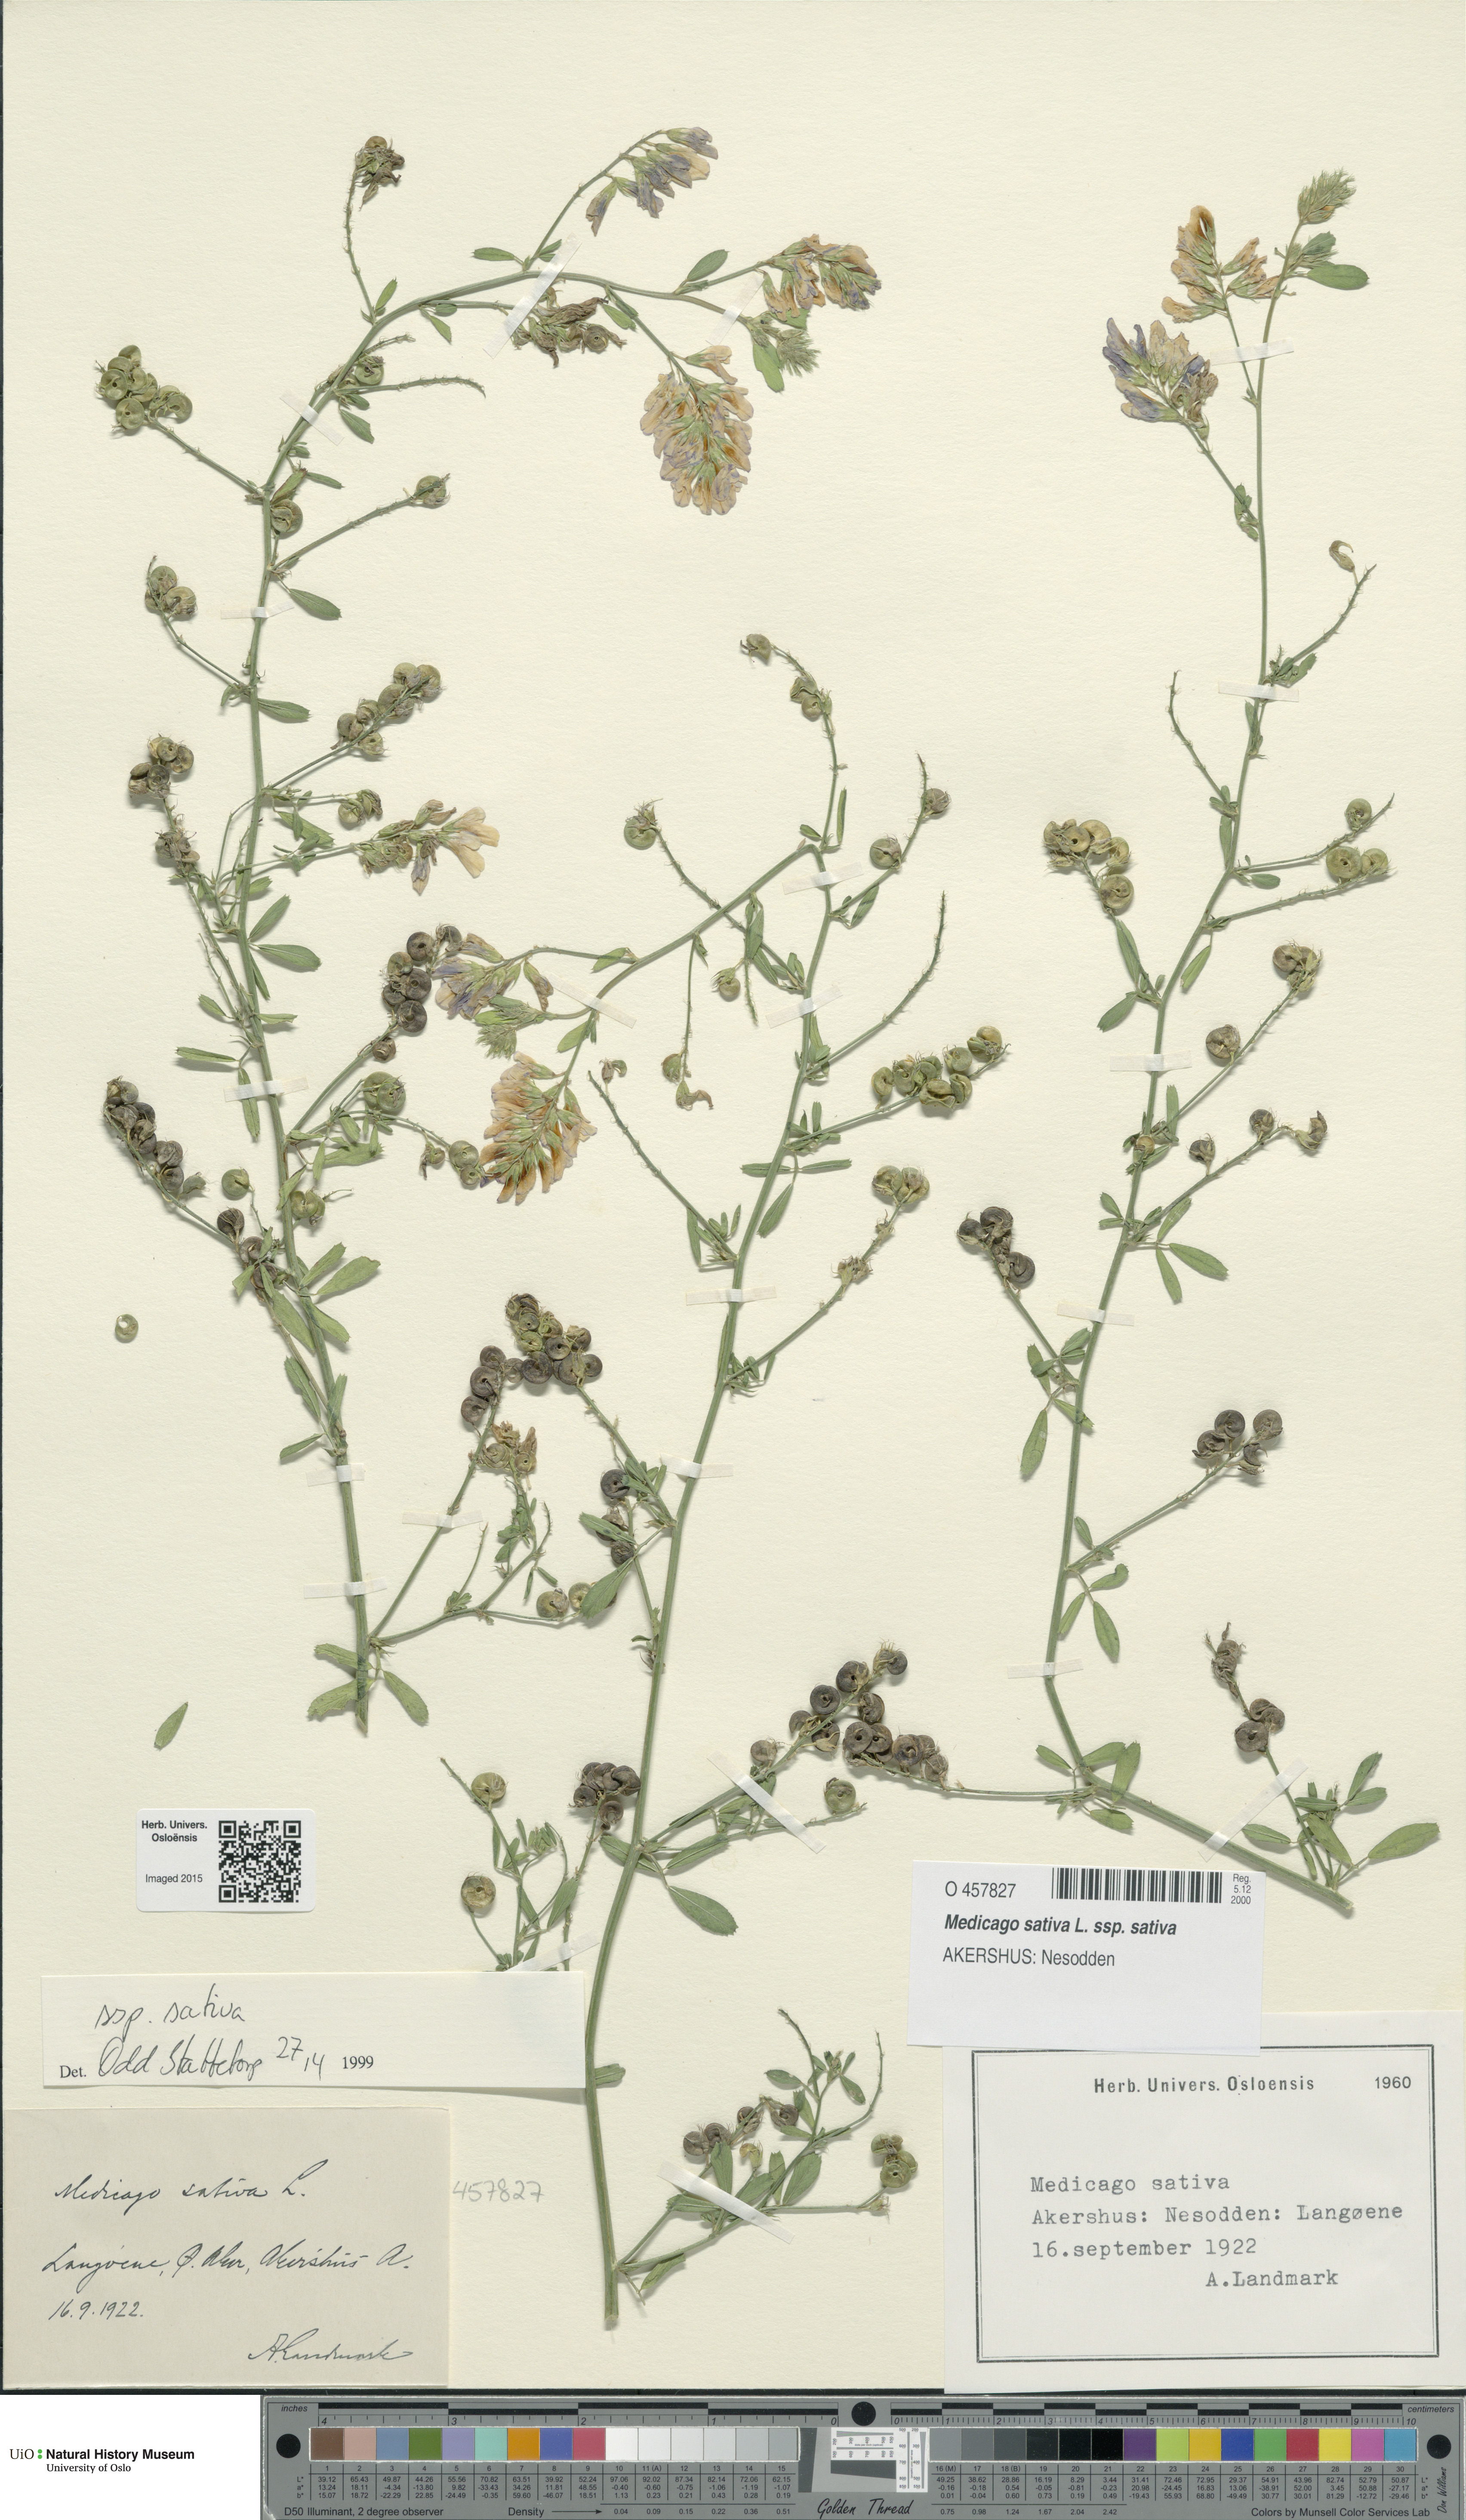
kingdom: Plantae
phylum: Tracheophyta
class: Magnoliopsida
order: Fabales
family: Fabaceae
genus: Medicago
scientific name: Medicago sativa
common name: Alfalfa
